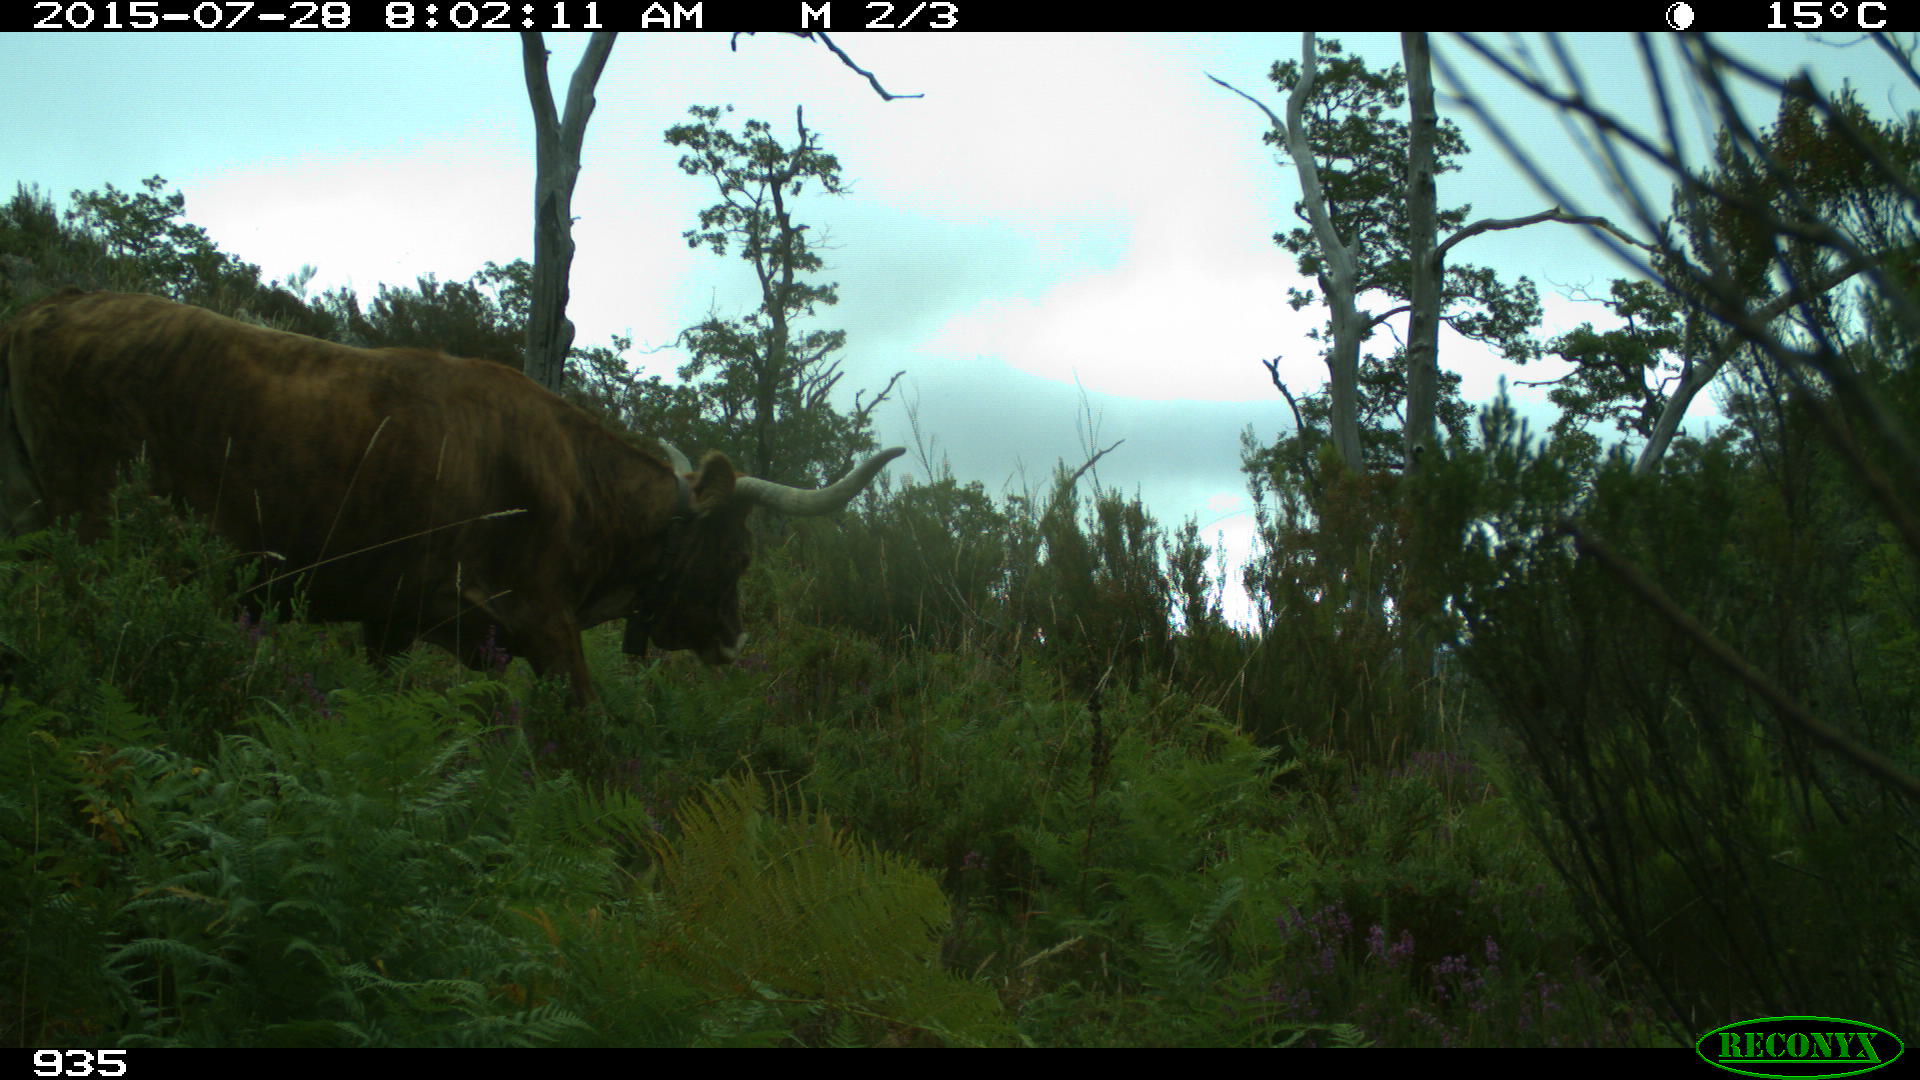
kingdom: Animalia
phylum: Chordata
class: Mammalia
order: Artiodactyla
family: Bovidae
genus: Bos
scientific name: Bos taurus
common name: Domesticated cattle
